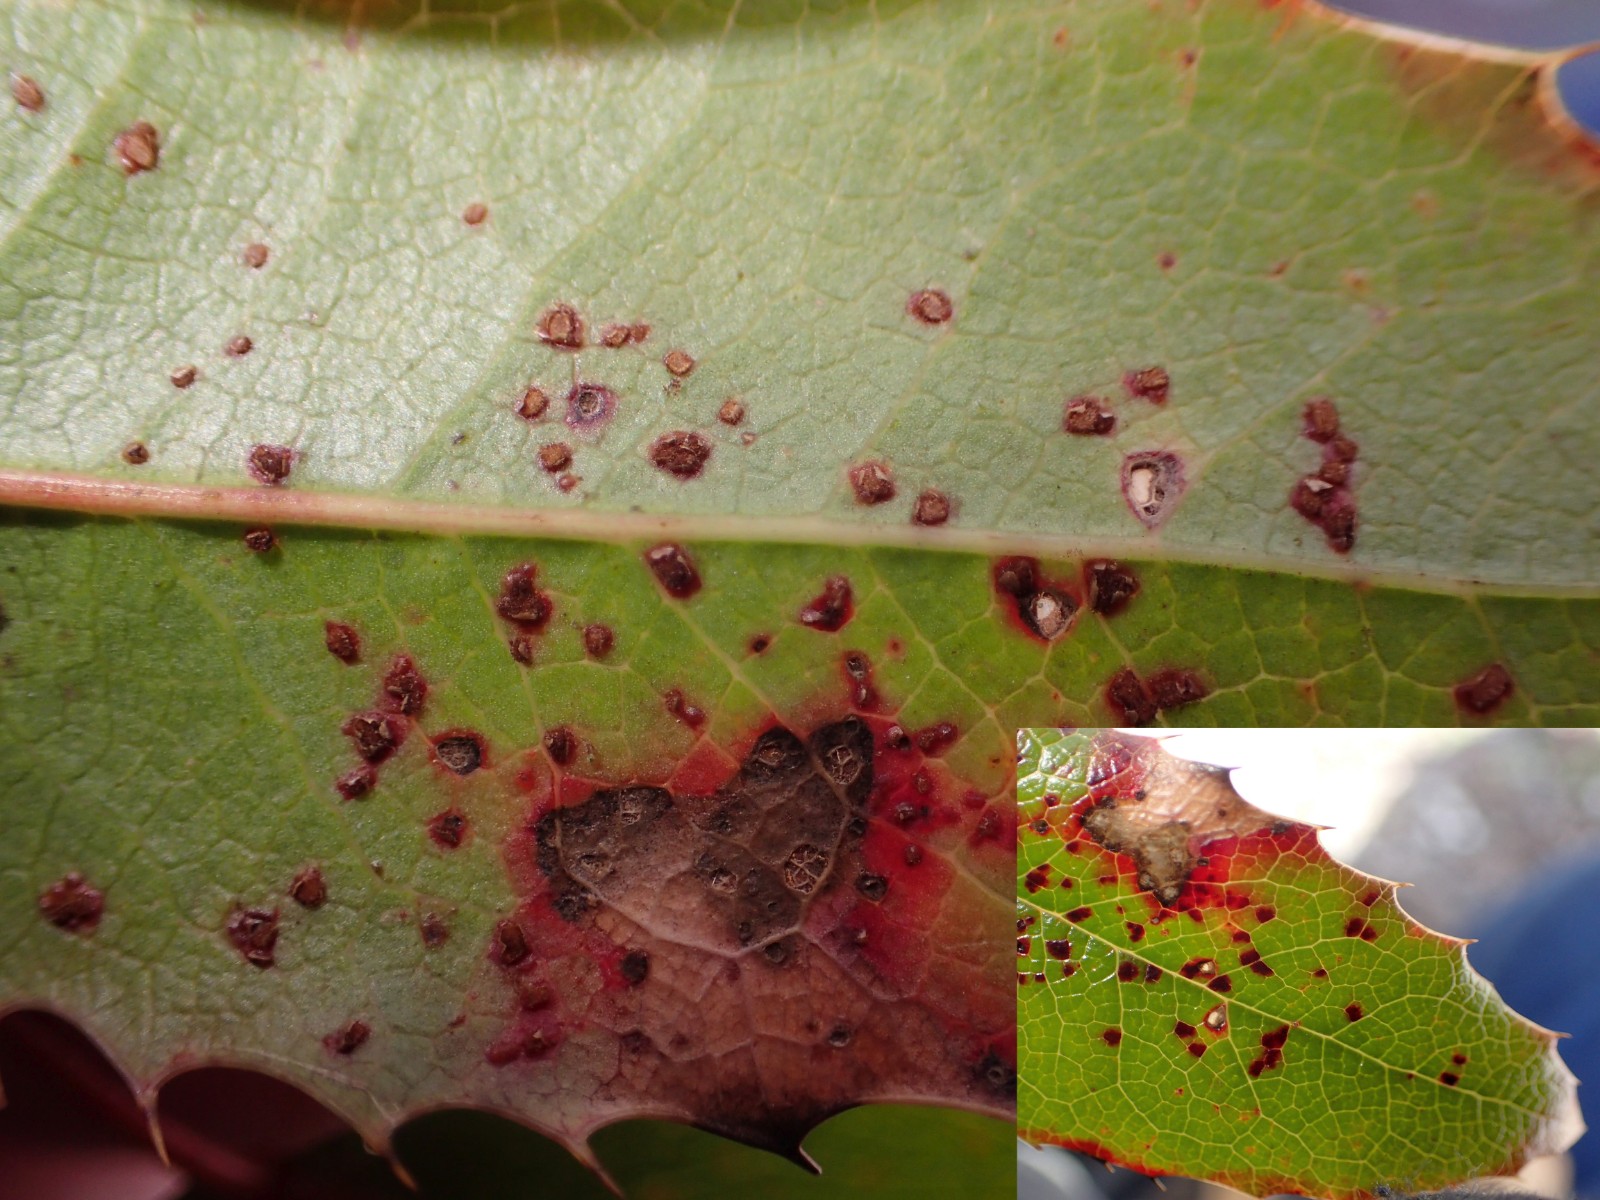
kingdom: Fungi
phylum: Basidiomycota
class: Pucciniomycetes
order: Pucciniales
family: Pucciniaceae
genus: Cumminsiella
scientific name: Cumminsiella mirabilissima
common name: mahonierust
